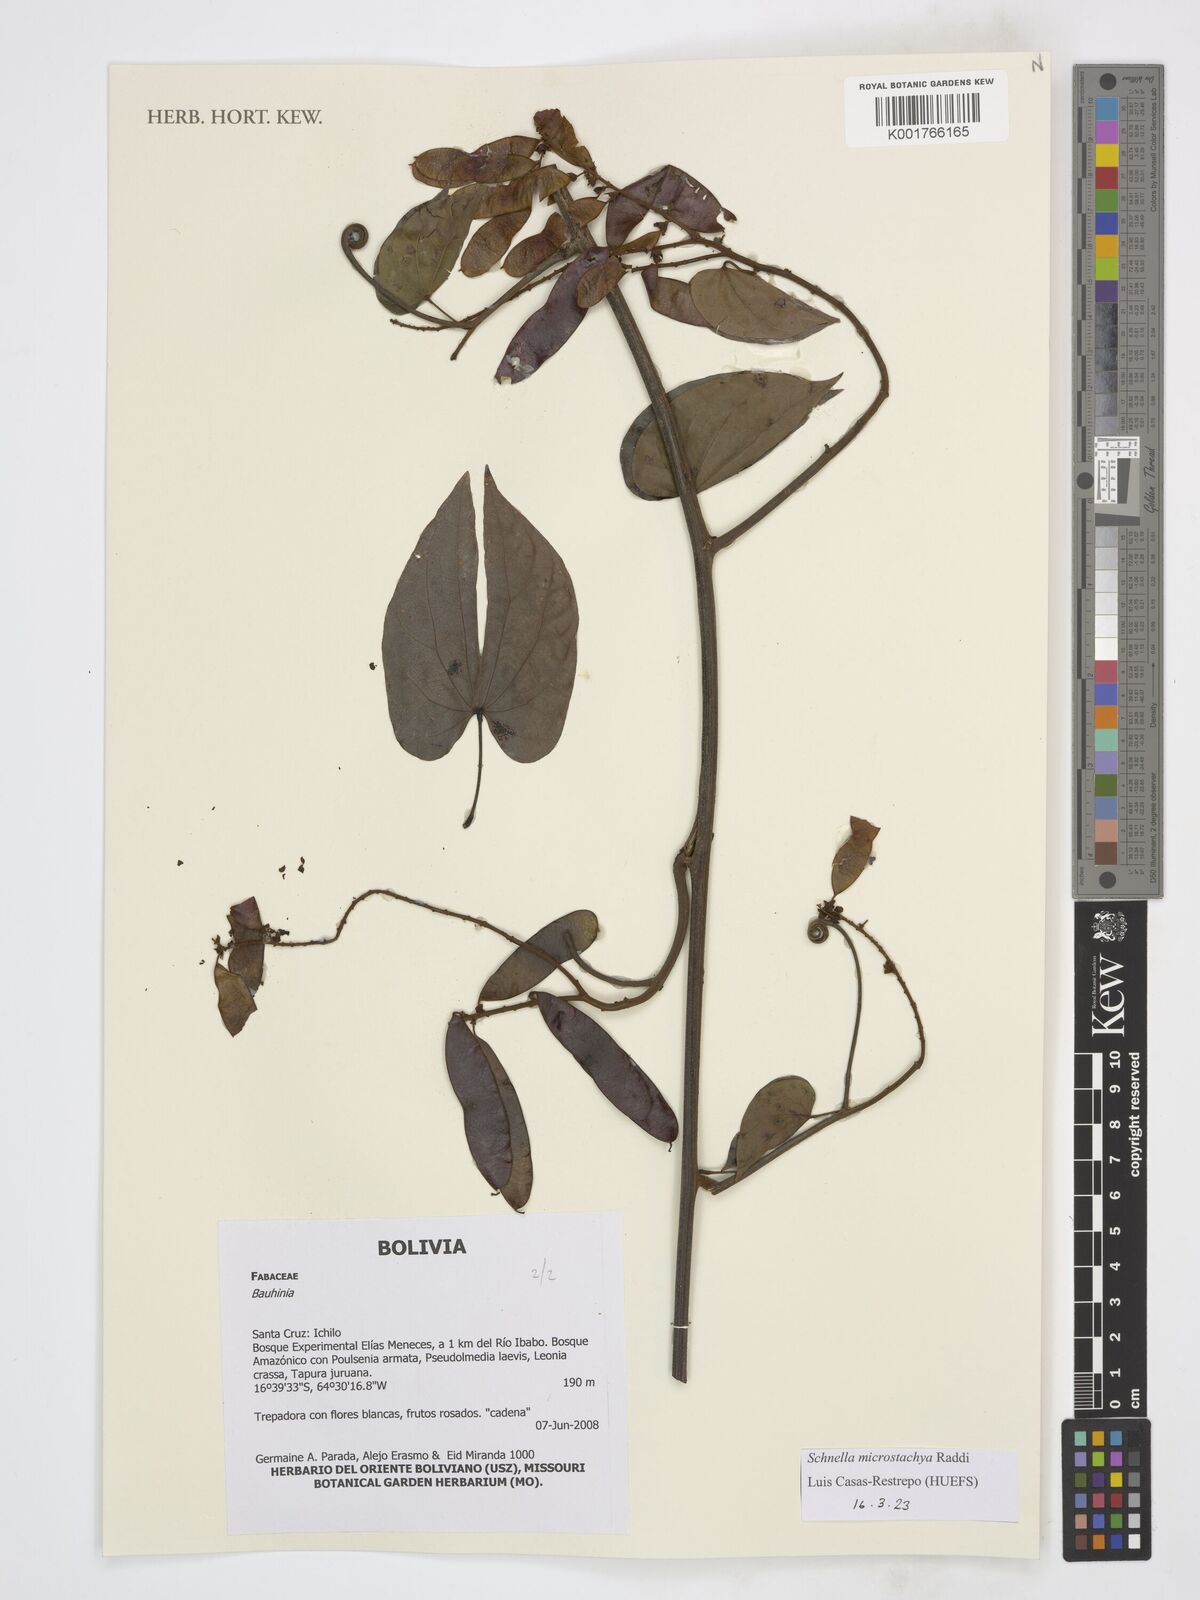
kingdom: Plantae
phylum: Tracheophyta
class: Magnoliopsida
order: Fabales
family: Fabaceae
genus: Schnella
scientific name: Schnella microstachya
